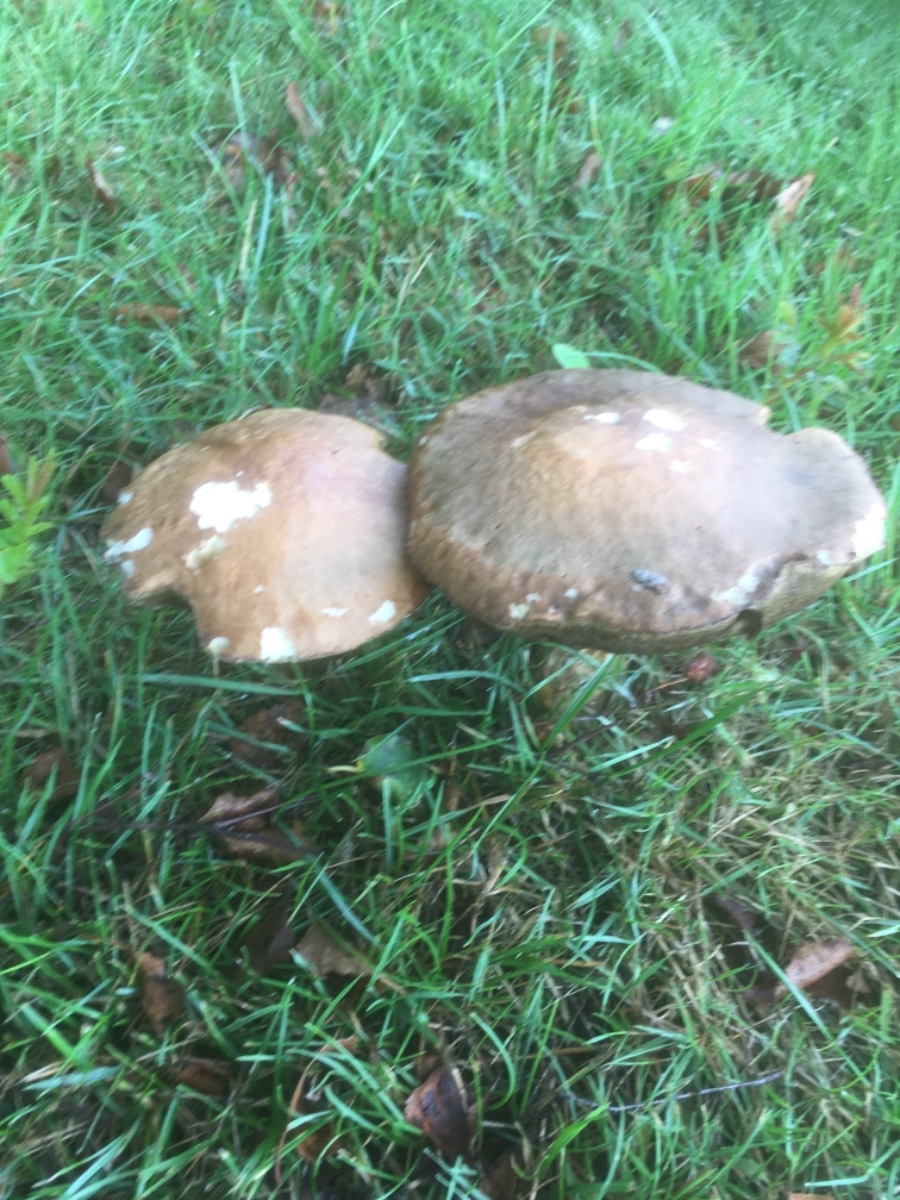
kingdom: Fungi
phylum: Basidiomycota
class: Agaricomycetes
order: Boletales
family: Boletaceae
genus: Leccinum
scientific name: Leccinum scabrum
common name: brun skælrørhat
